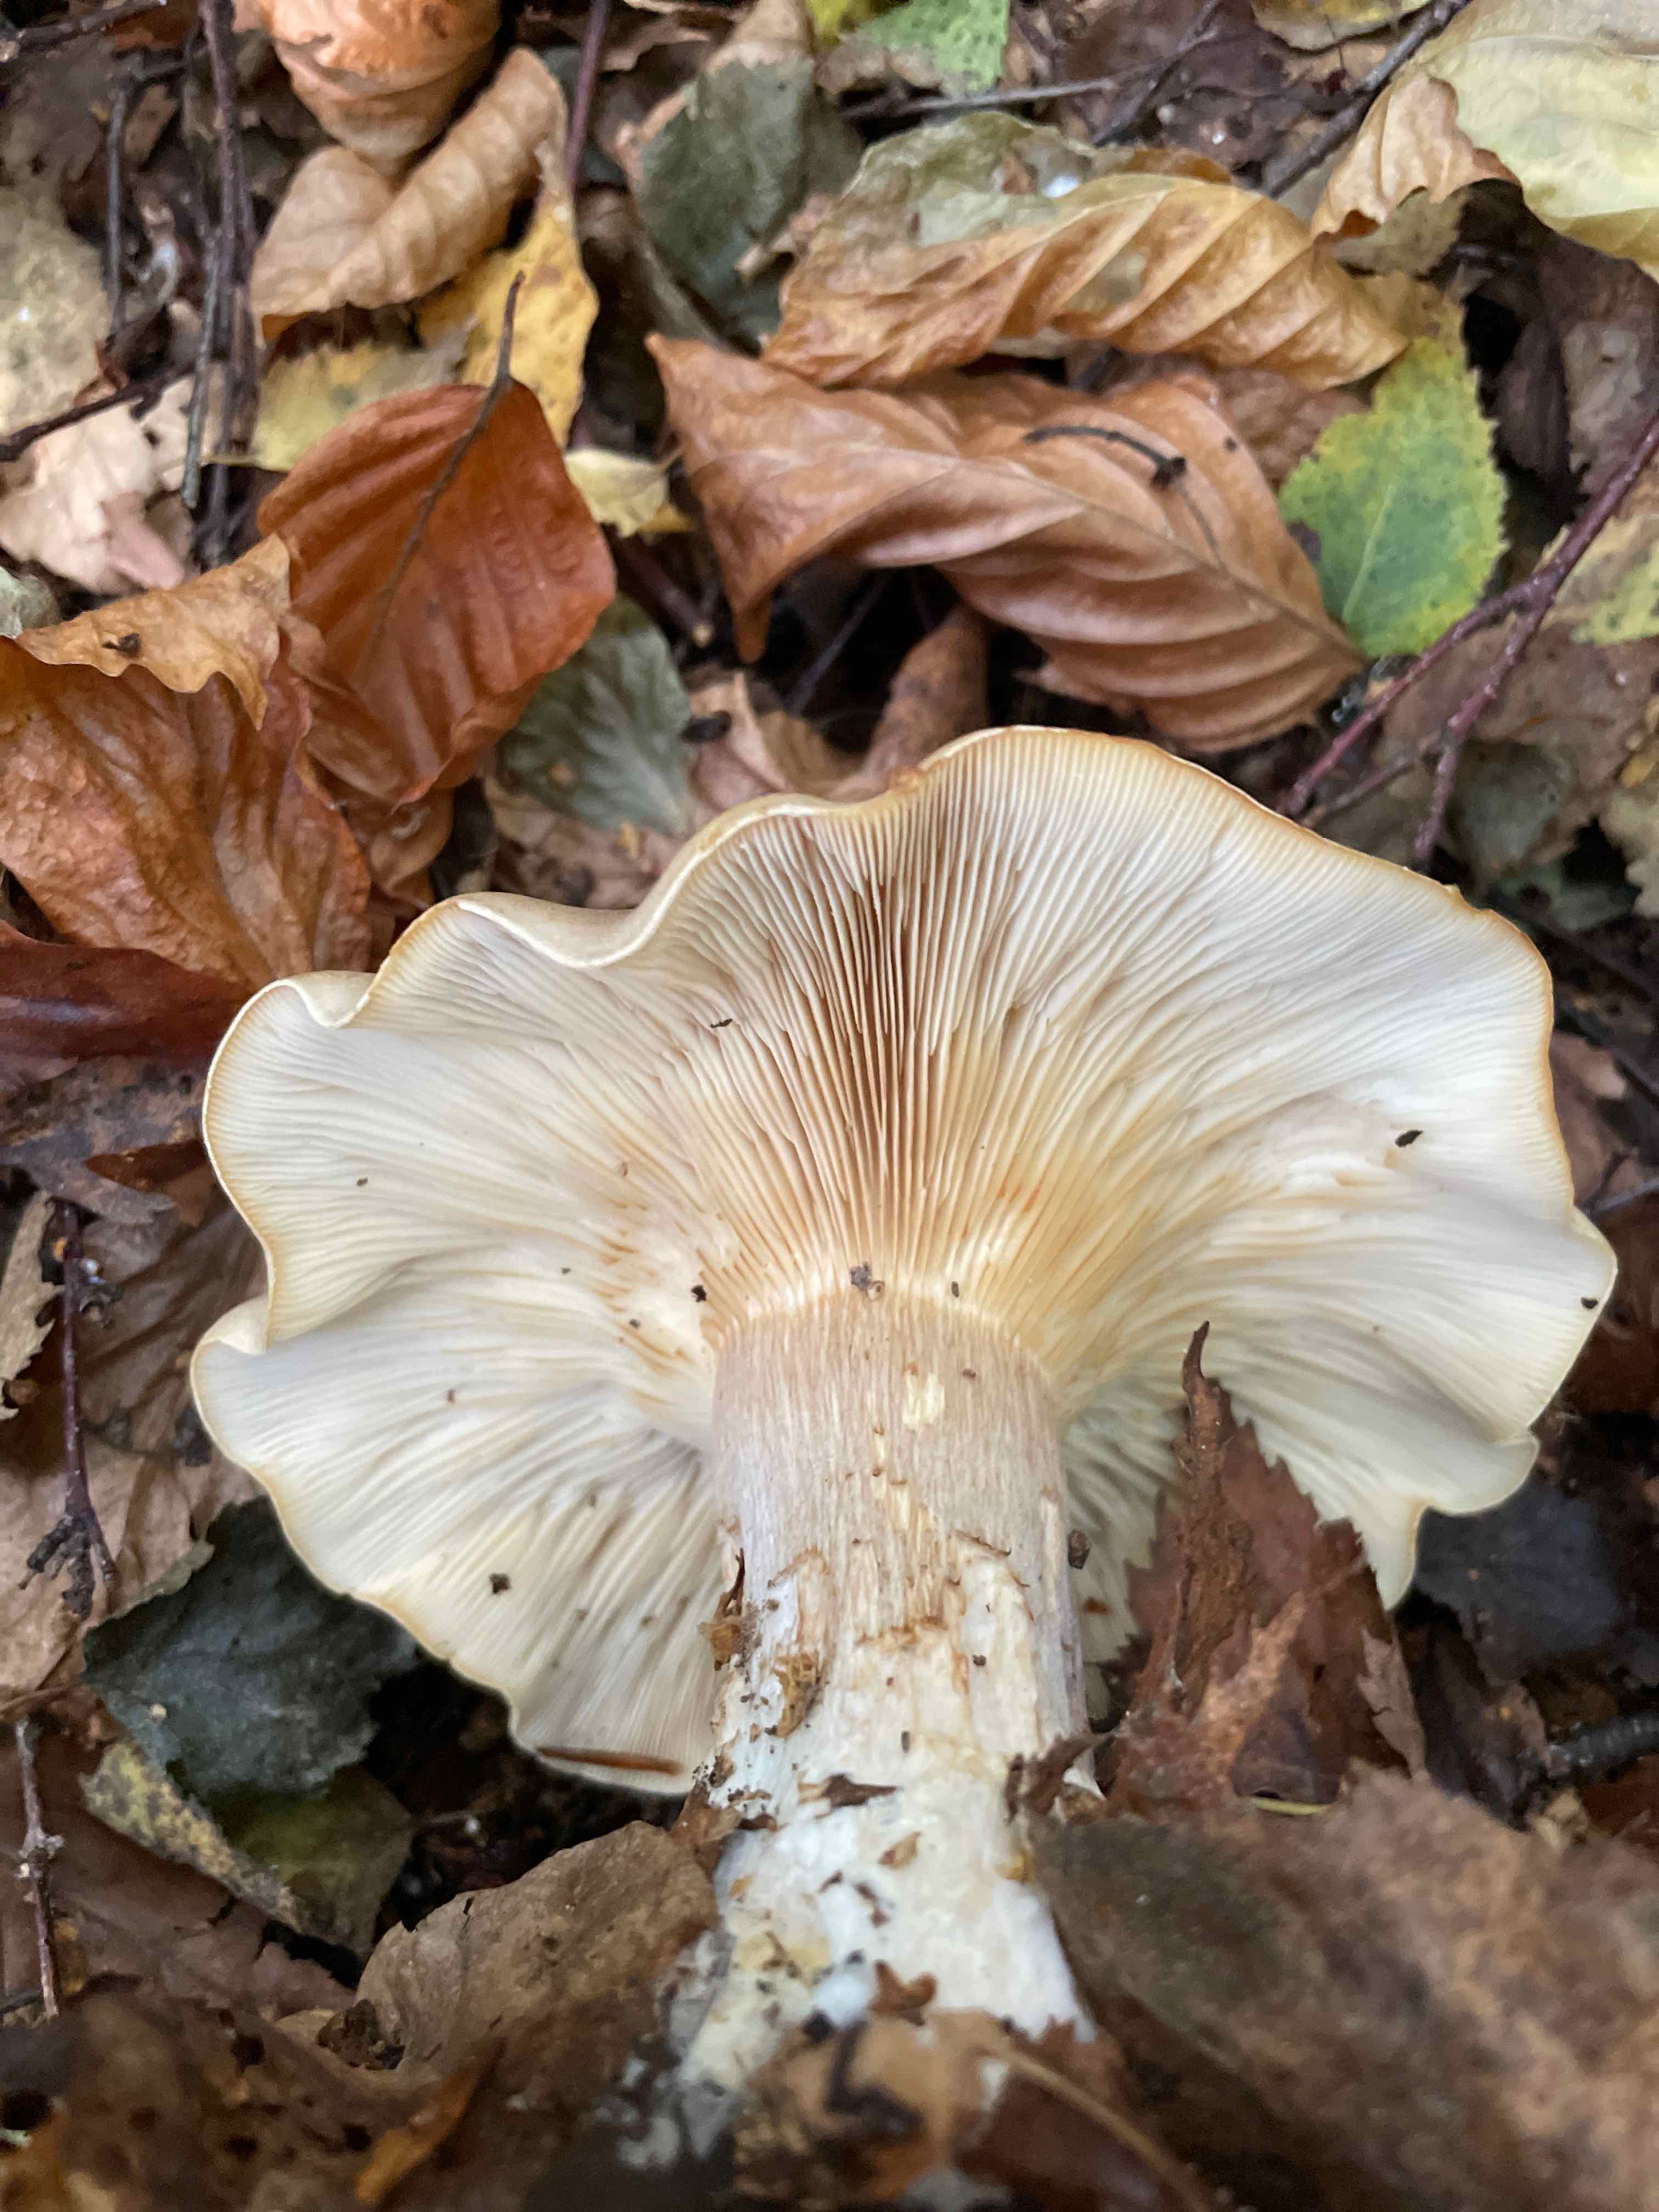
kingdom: Fungi
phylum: Basidiomycota
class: Agaricomycetes
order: Agaricales
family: Tricholomataceae
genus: Clitocybe
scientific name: Clitocybe nebularis
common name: tåge-tragthat
